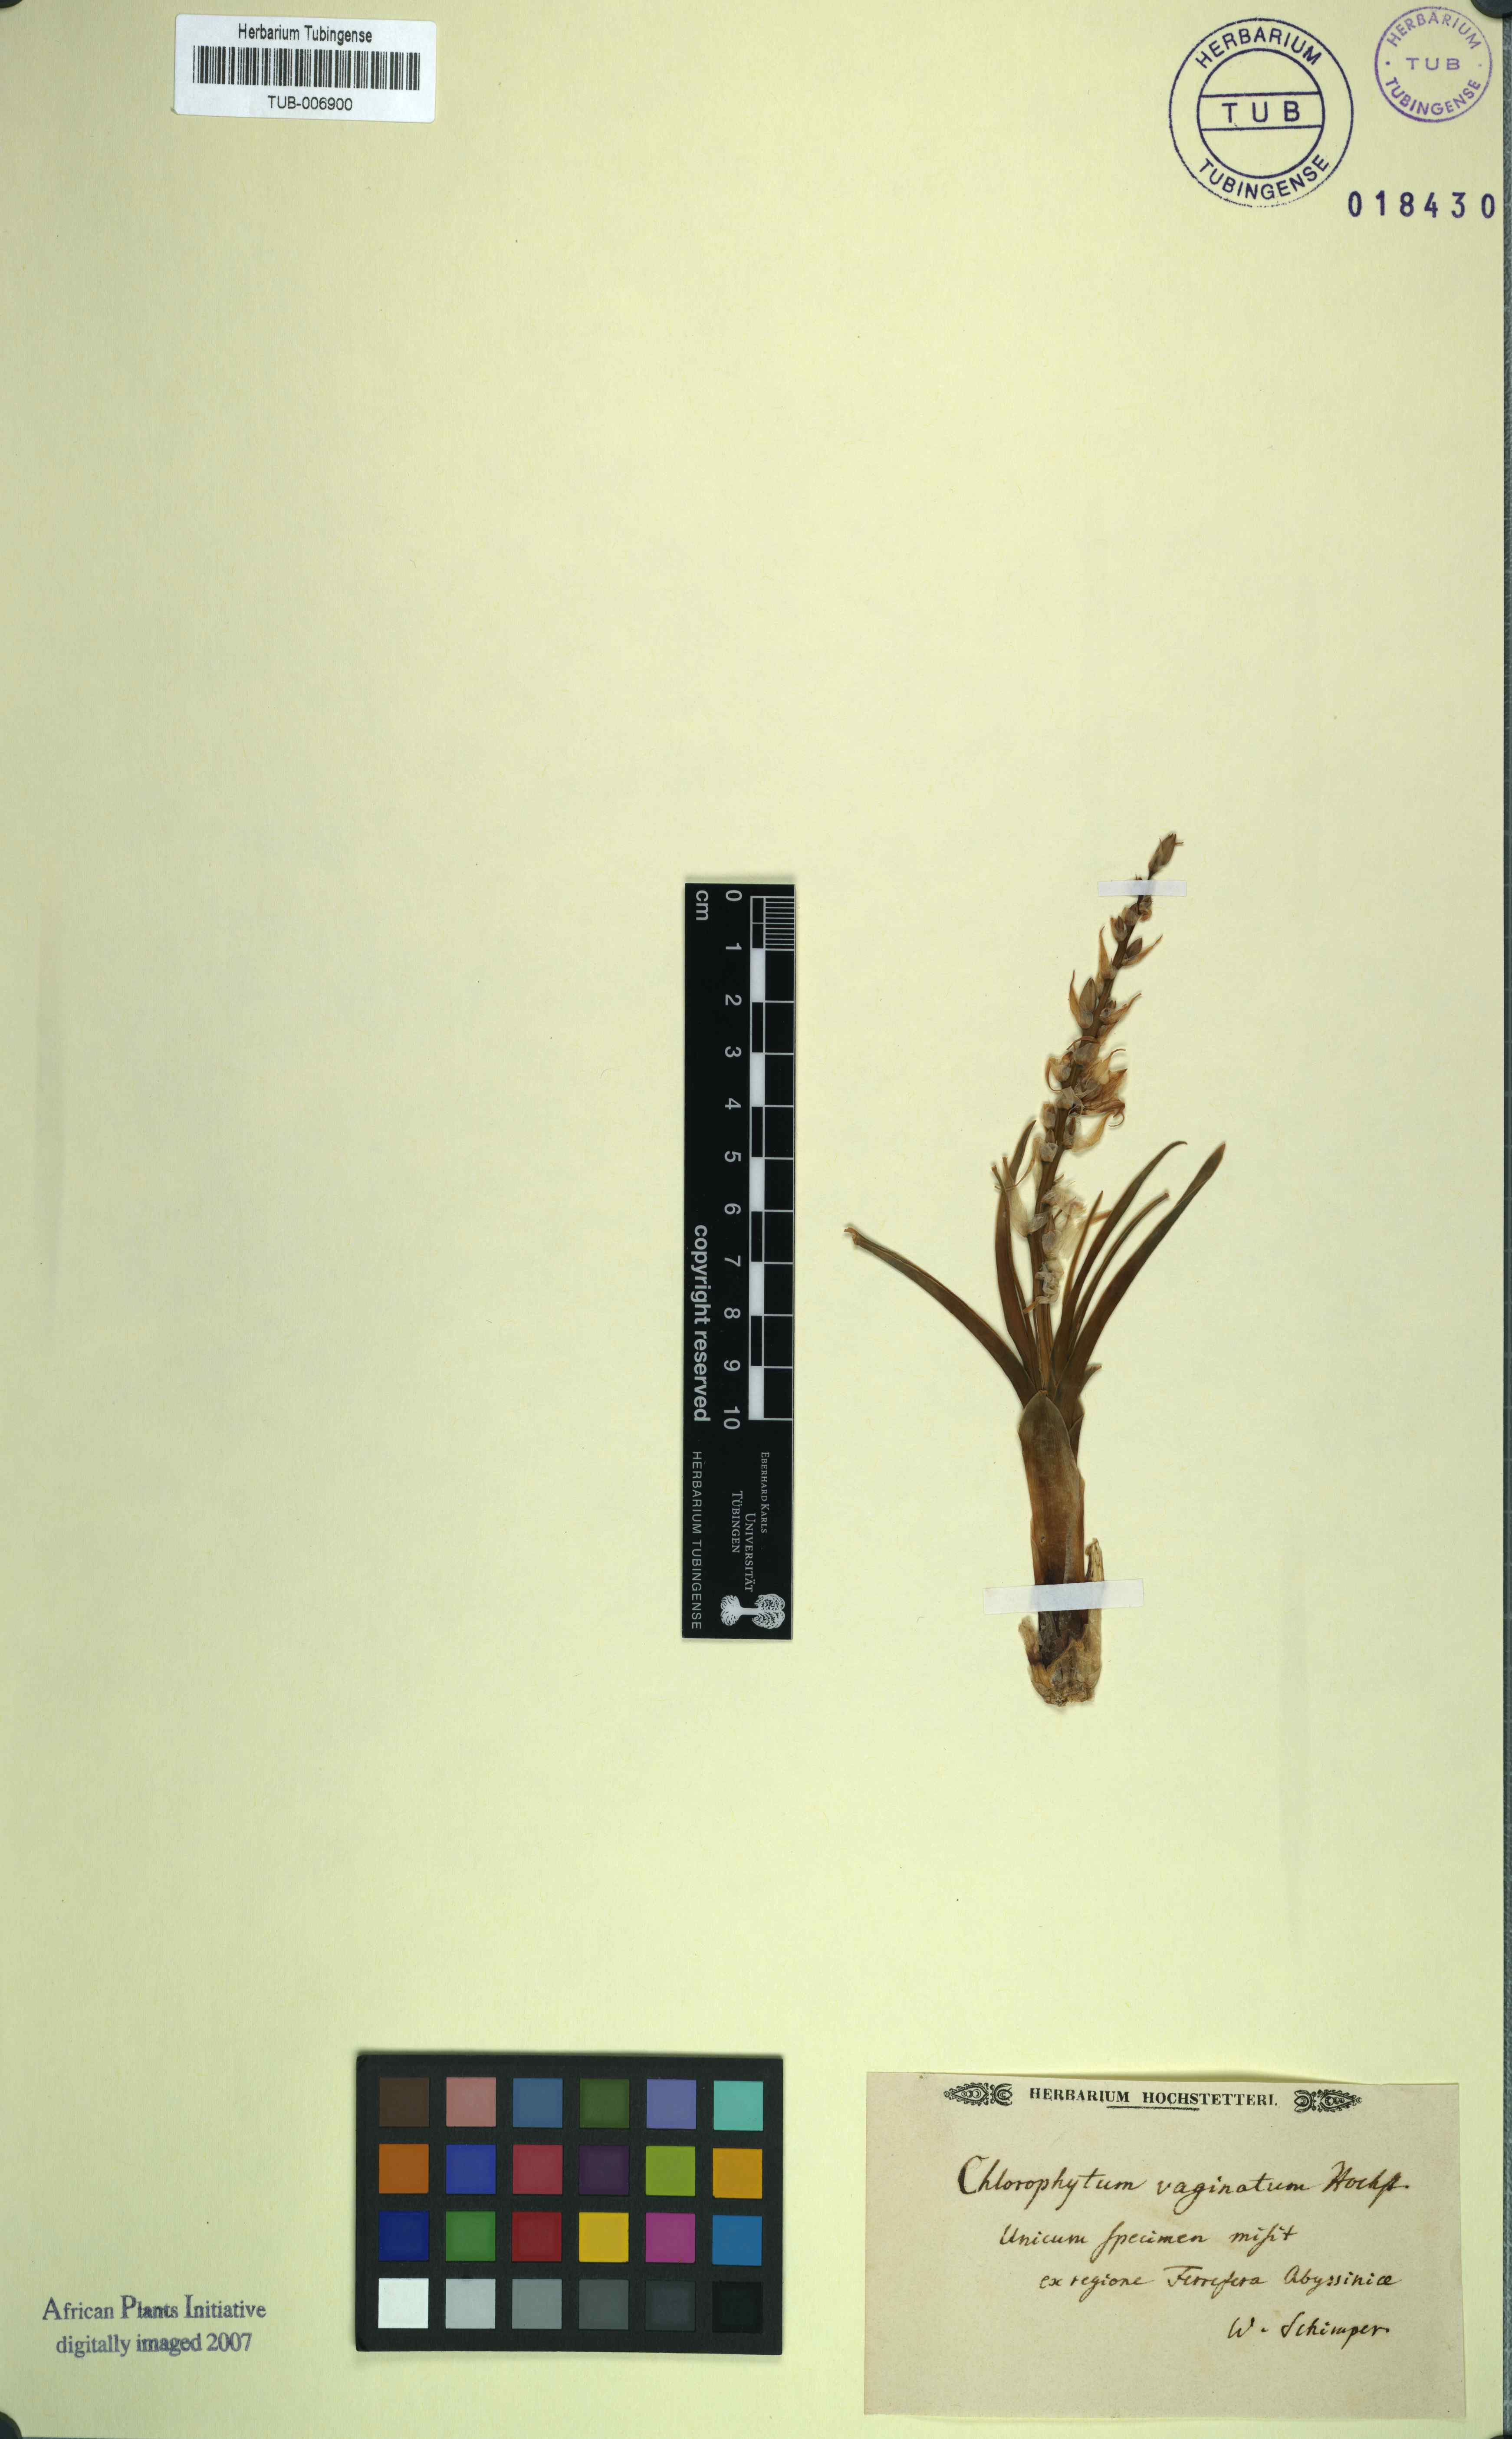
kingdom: Plantae
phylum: Tracheophyta
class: Liliopsida
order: Asparagales
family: Asparagaceae
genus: Ornithogalum
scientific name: Ornithogalum graminifolium
